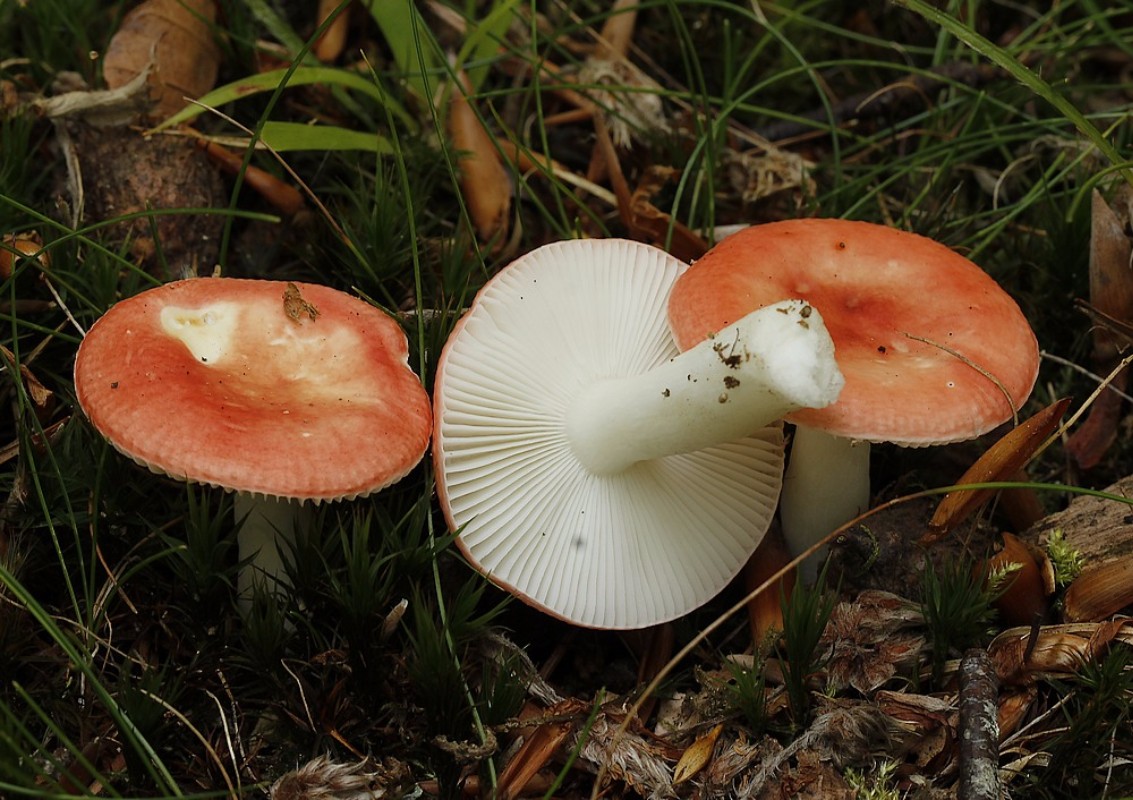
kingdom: Fungi
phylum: Basidiomycota
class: Agaricomycetes
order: Russulales
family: Russulaceae
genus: Russula
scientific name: Russula
